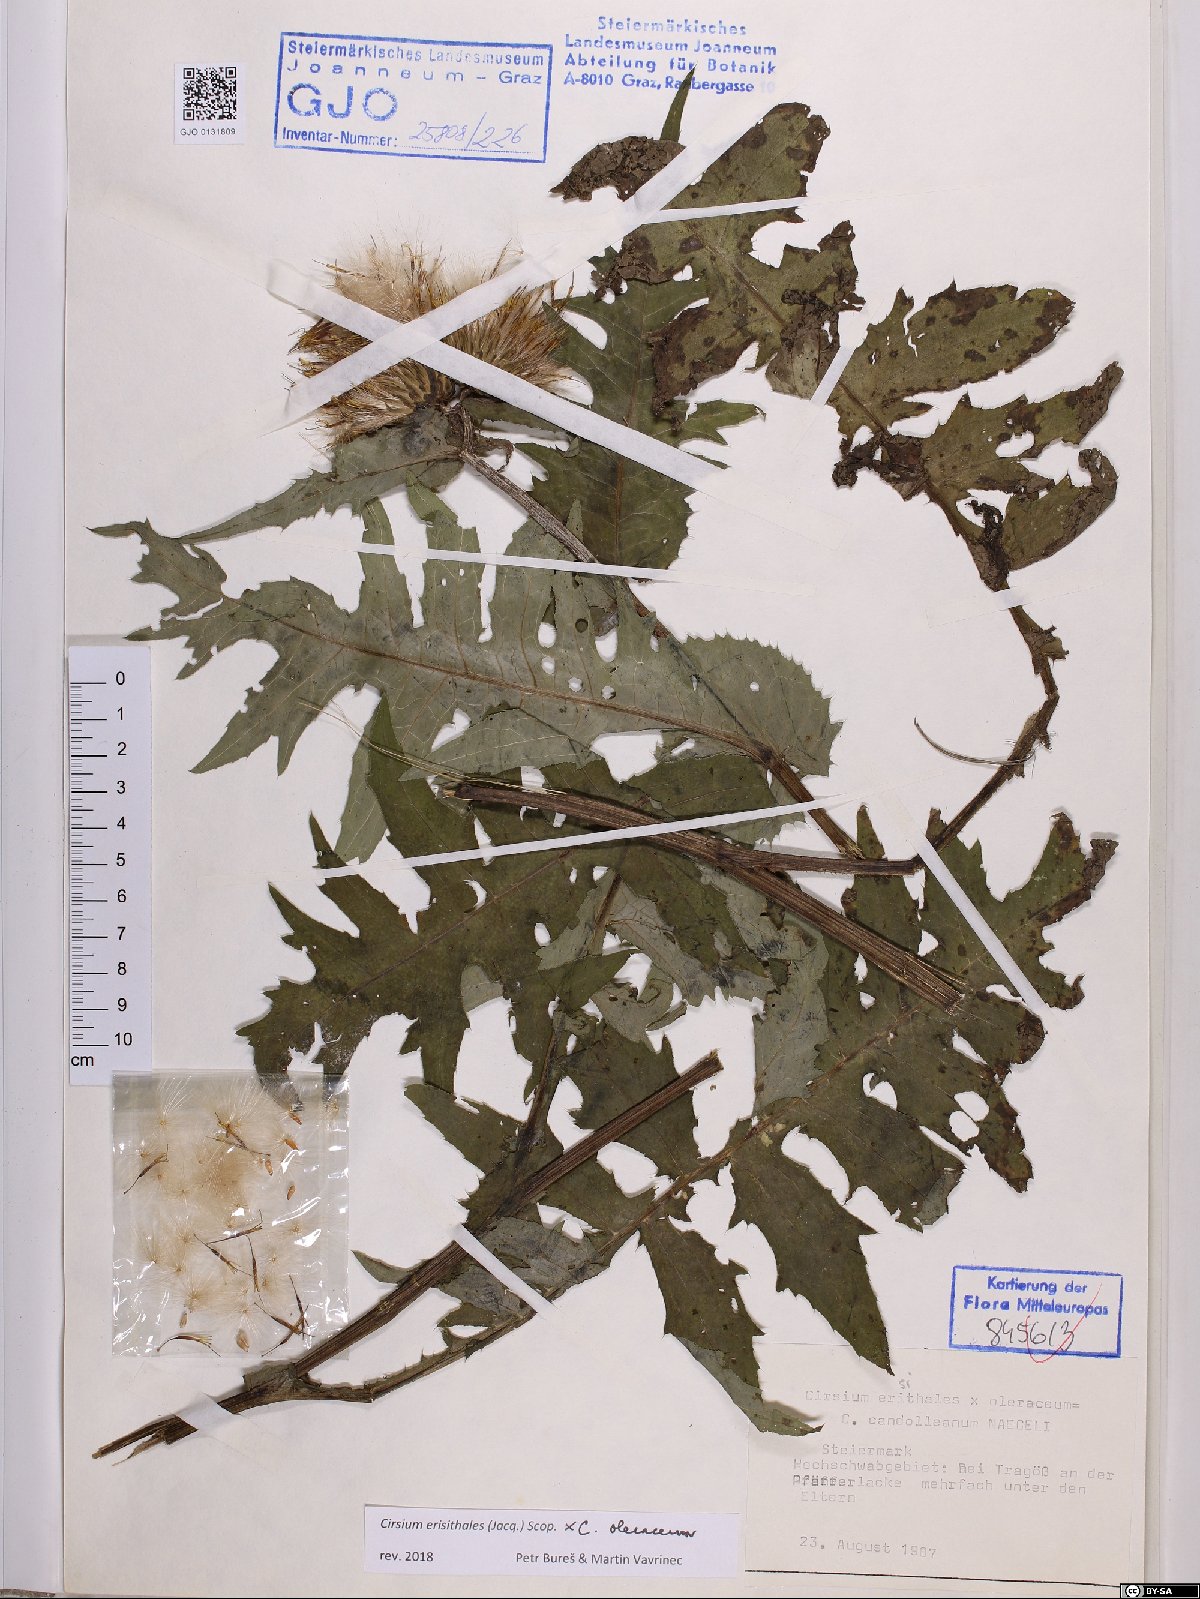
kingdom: Plantae
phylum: Tracheophyta
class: Magnoliopsida
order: Asterales
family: Asteraceae
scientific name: Asteraceae
